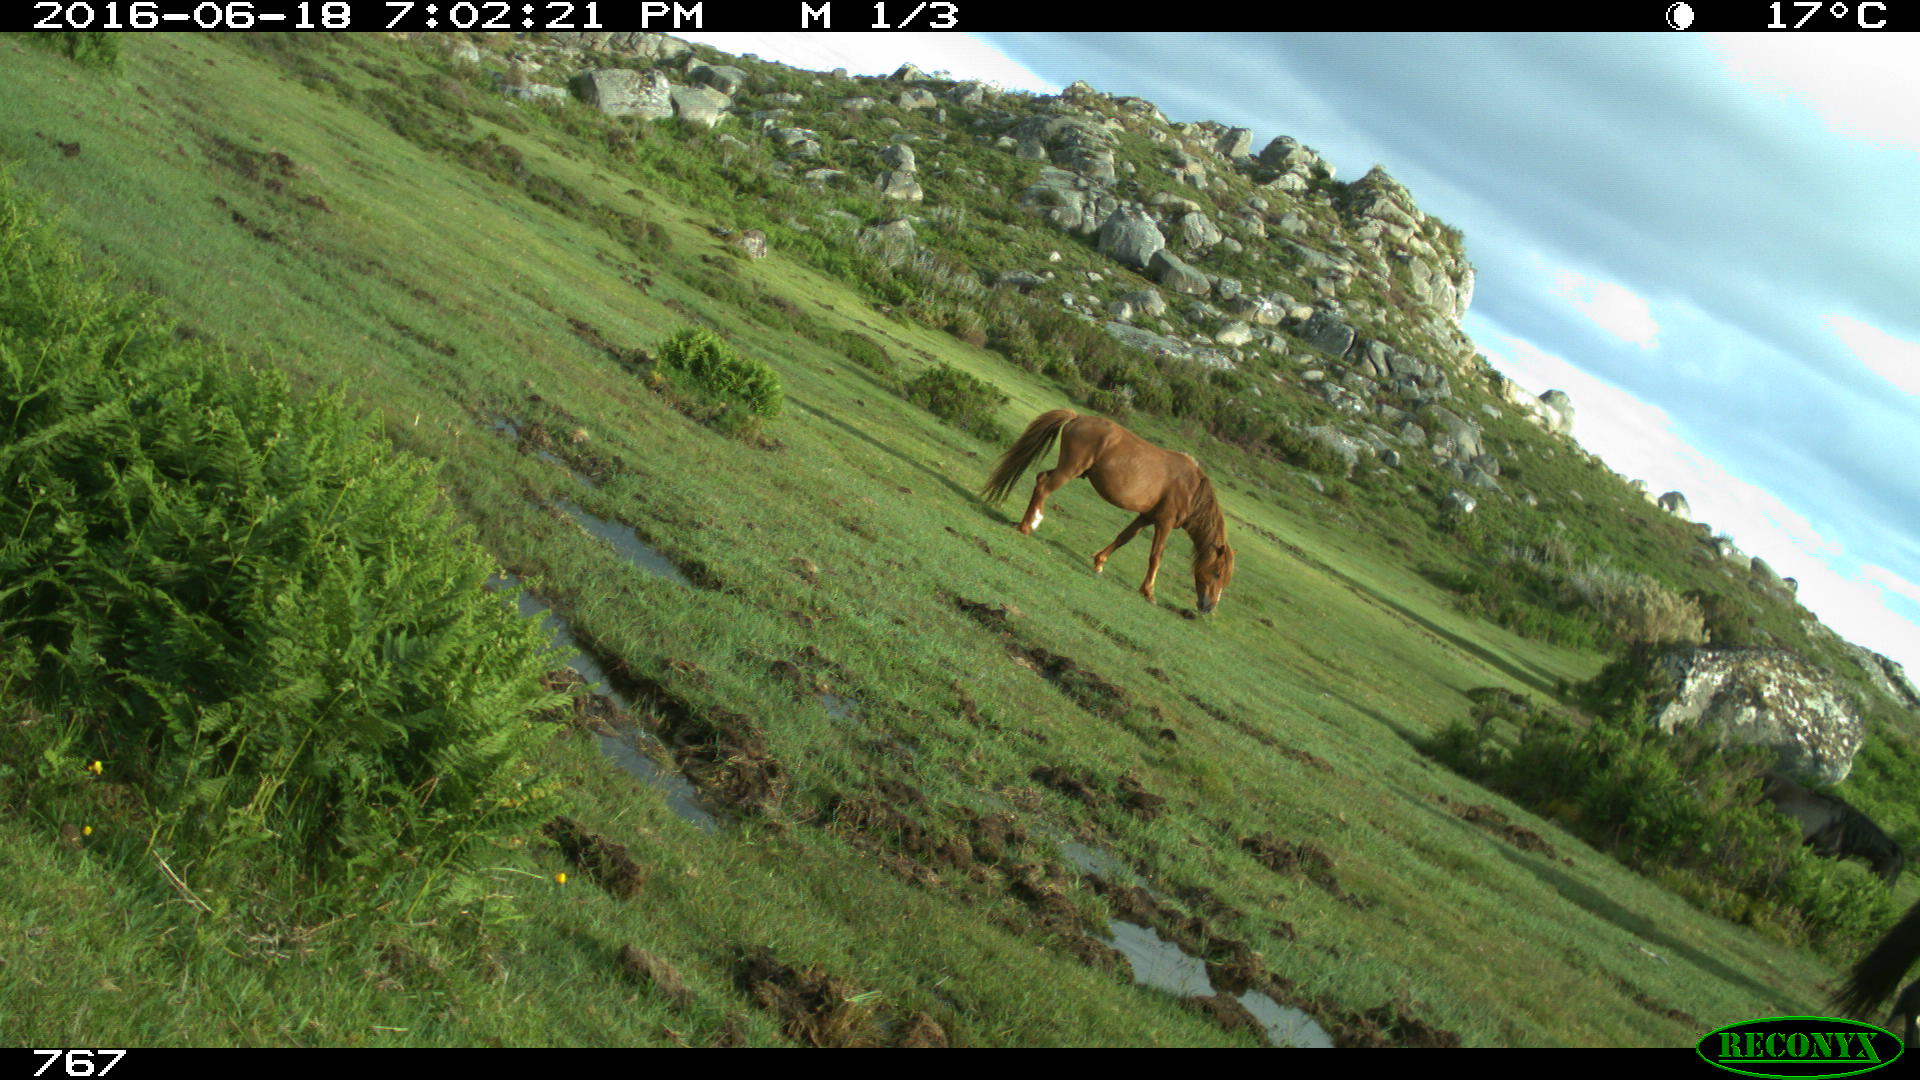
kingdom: Animalia
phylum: Chordata
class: Mammalia
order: Perissodactyla
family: Equidae
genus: Equus
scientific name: Equus caballus
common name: Horse
